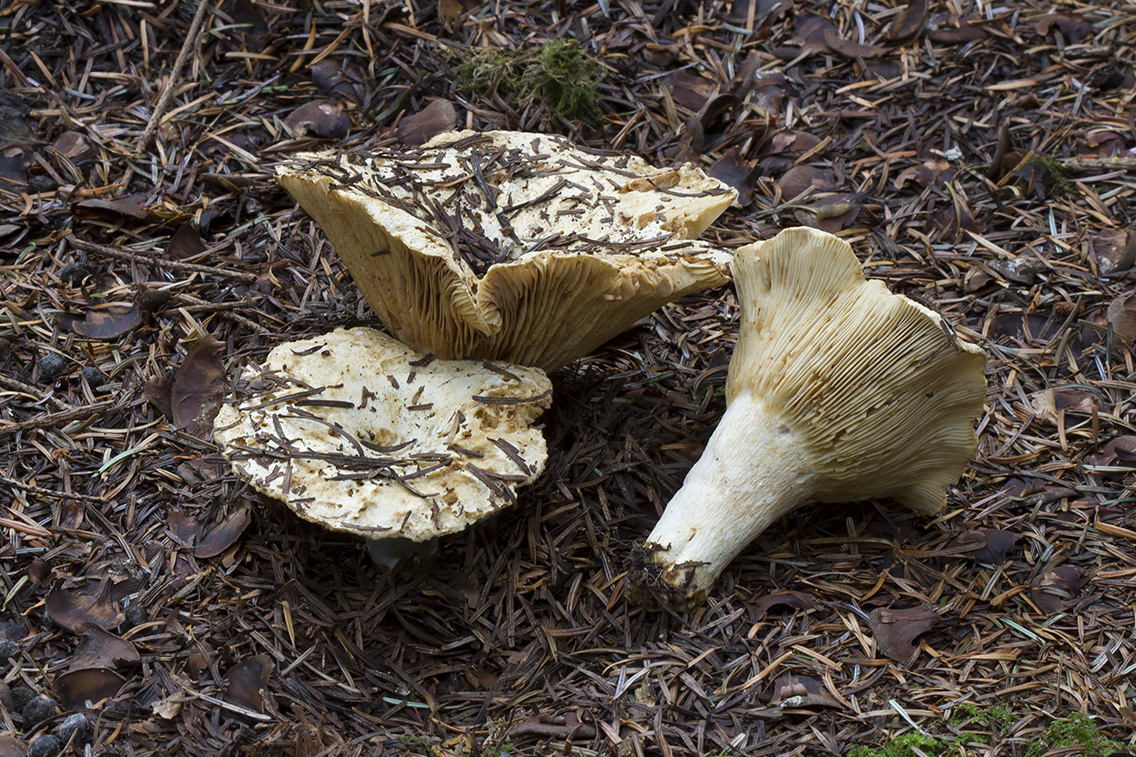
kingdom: Fungi
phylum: Basidiomycota
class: Agaricomycetes
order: Russulales
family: Russulaceae
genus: Russula
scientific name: Russula delica
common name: almindelig tragt-skørhat
